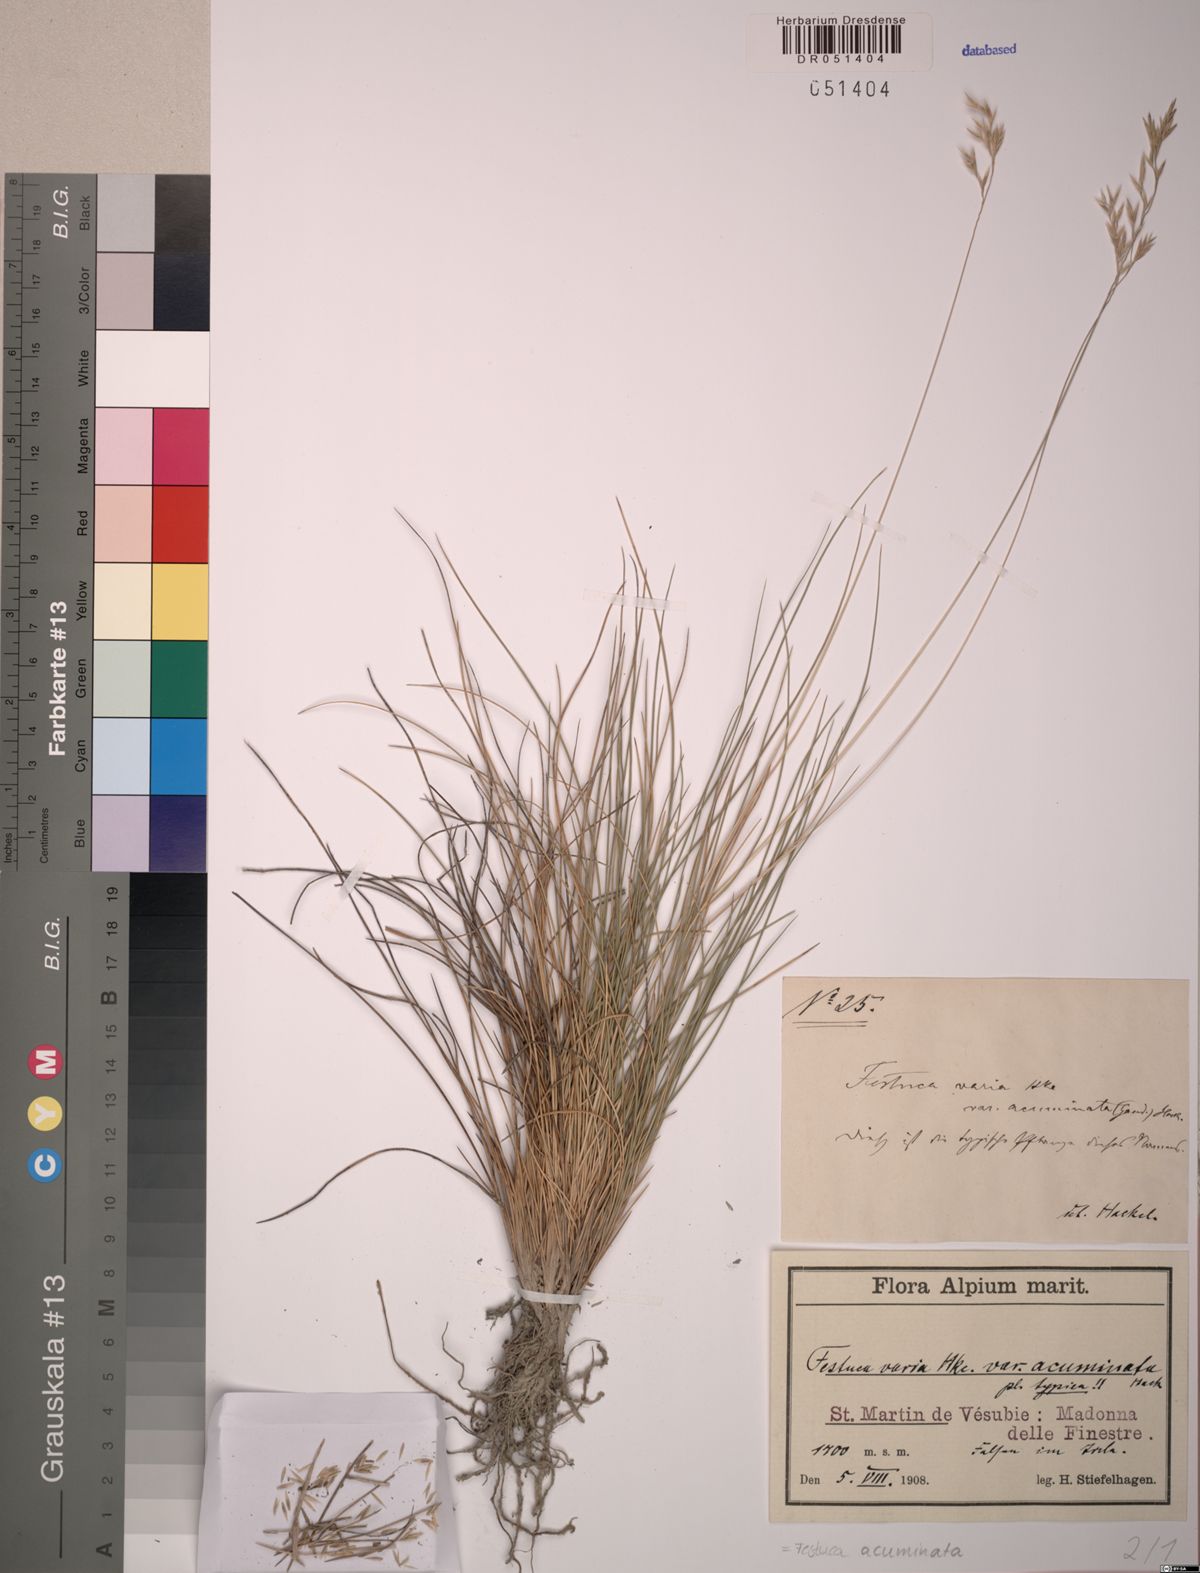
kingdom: Plantae
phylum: Tracheophyta
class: Liliopsida
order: Poales
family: Poaceae
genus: Festuca
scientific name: Festuca acuminata
